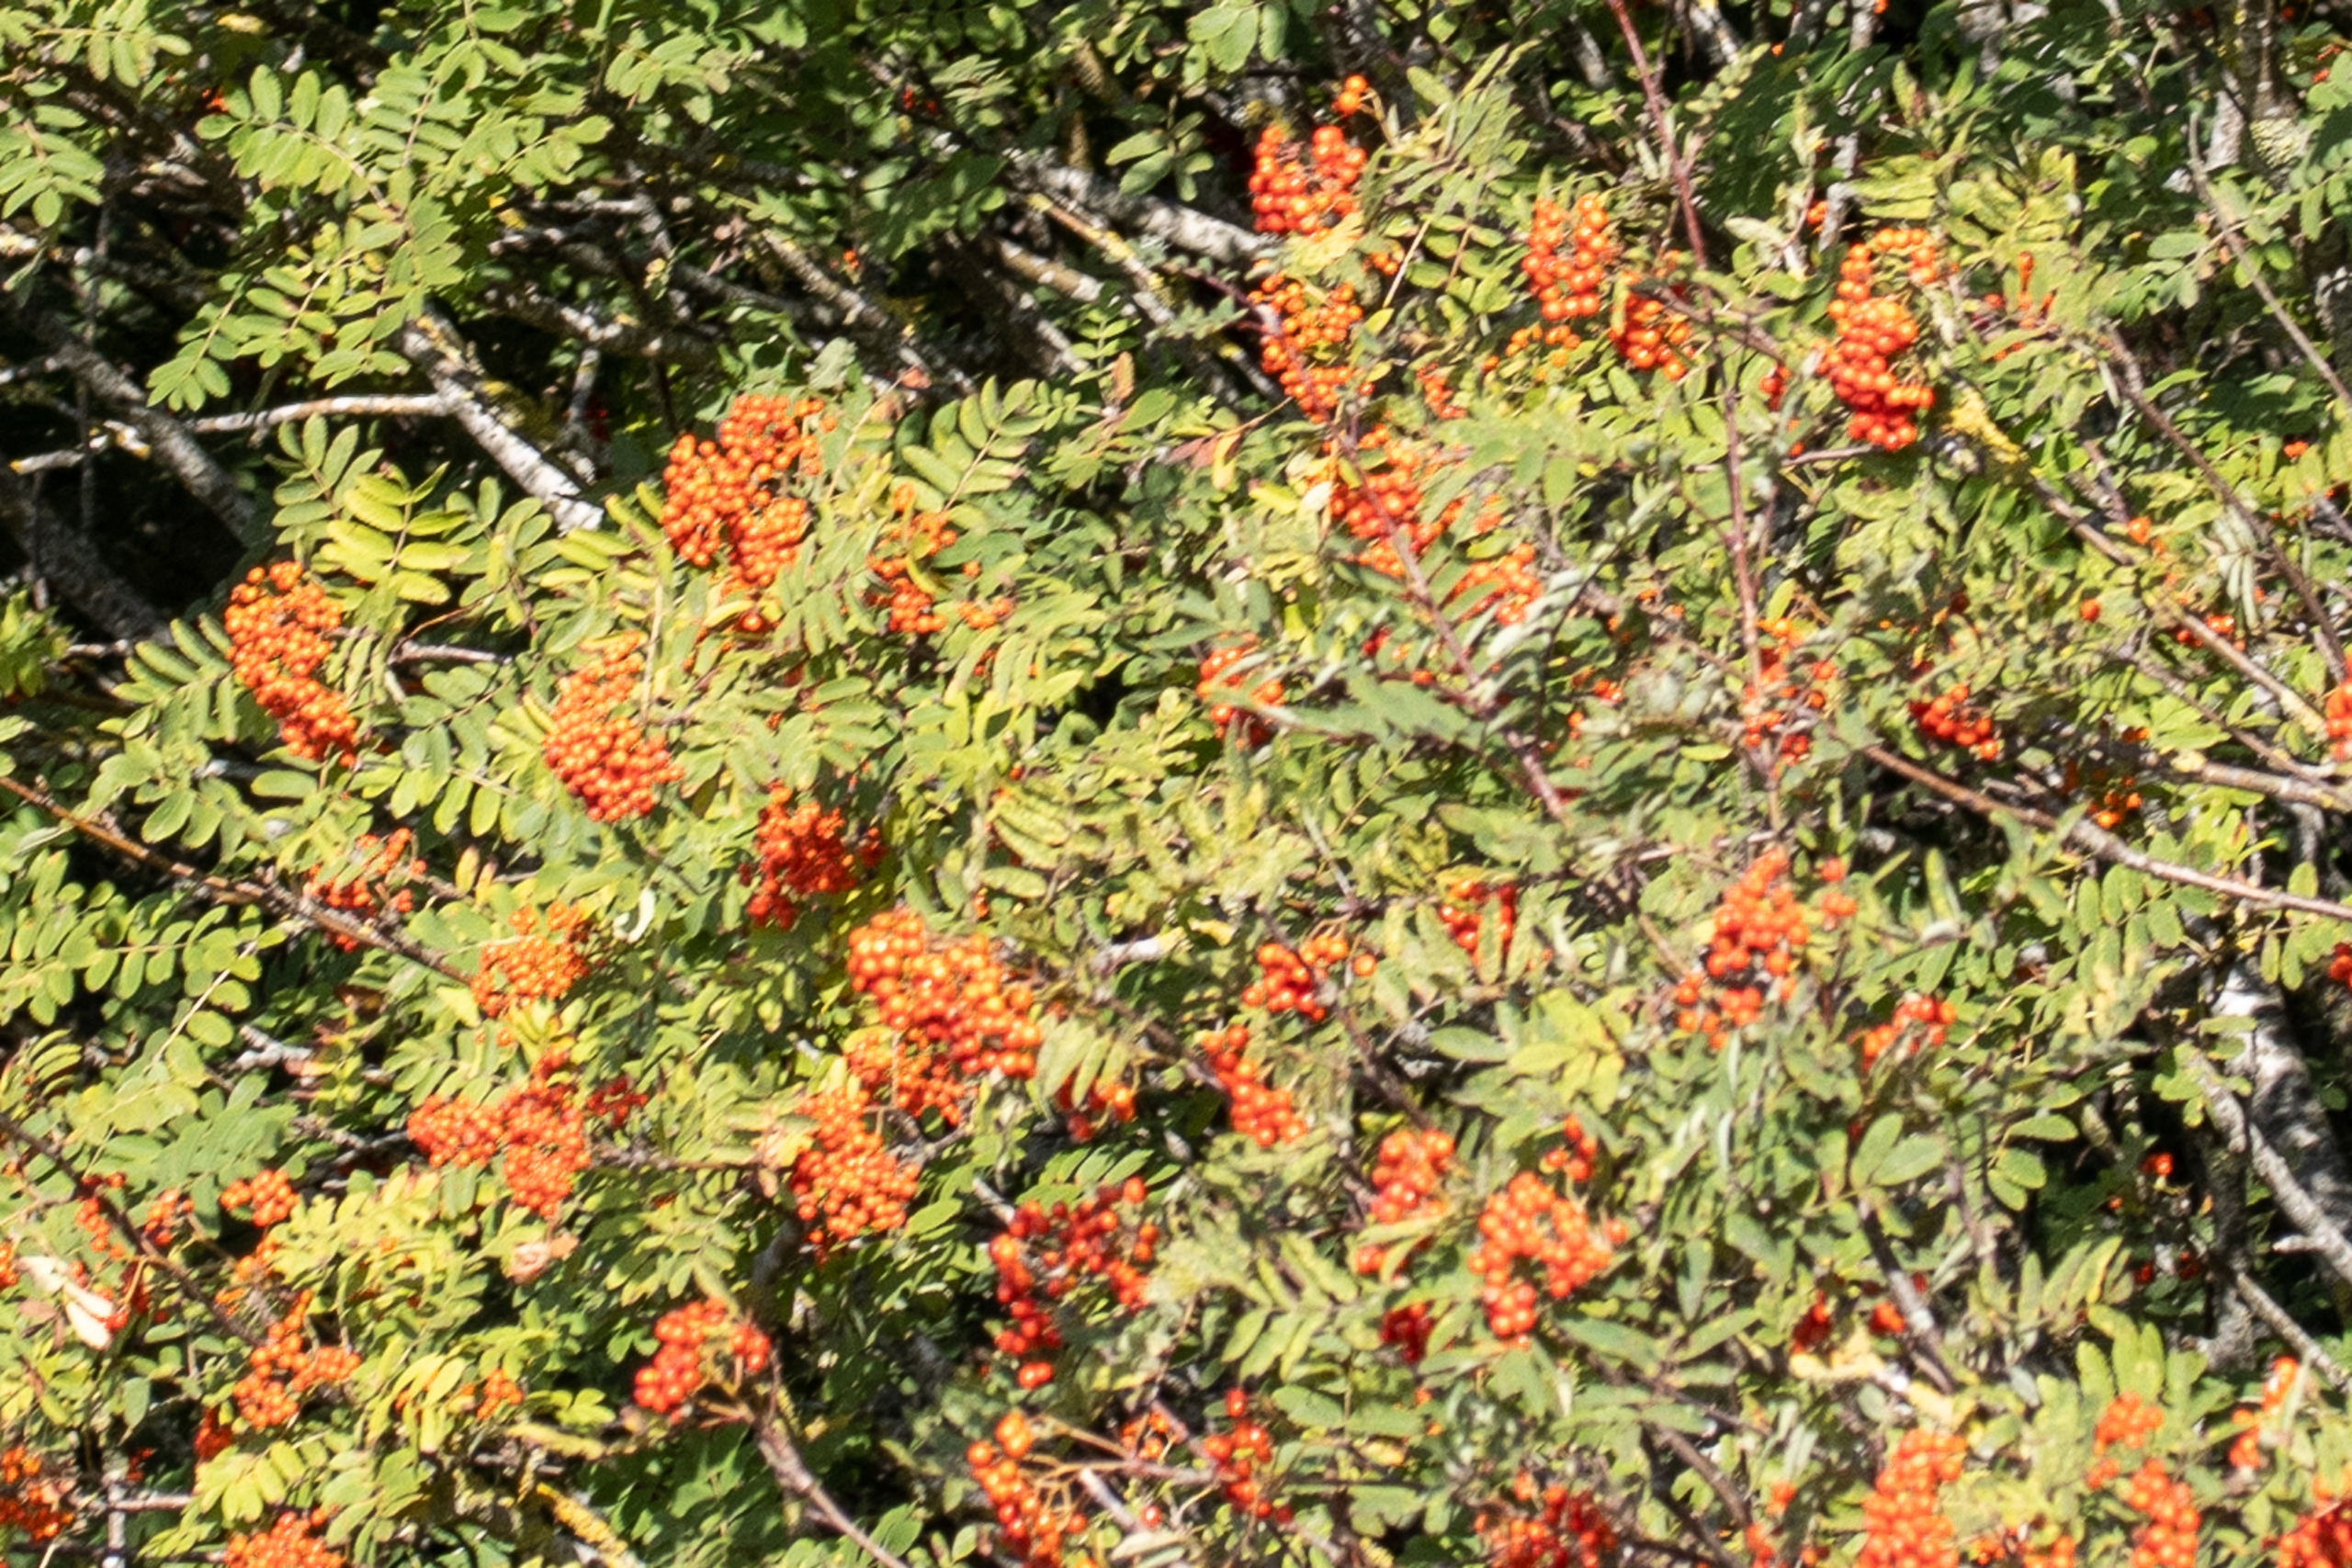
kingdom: Plantae
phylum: Tracheophyta
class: Magnoliopsida
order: Rosales
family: Rosaceae
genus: Sorbus
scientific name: Sorbus aucuparia
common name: Almindelig røn
